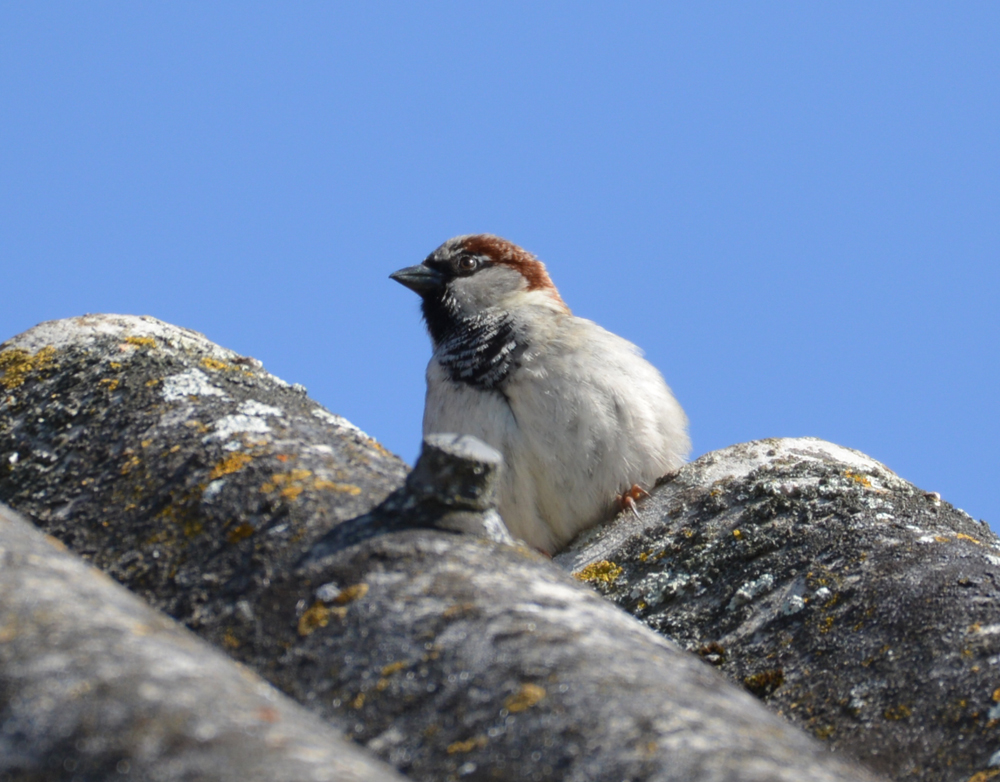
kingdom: Animalia
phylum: Chordata
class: Aves
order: Passeriformes
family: Passeridae
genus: Passer
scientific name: Passer domesticus
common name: House sparrow
